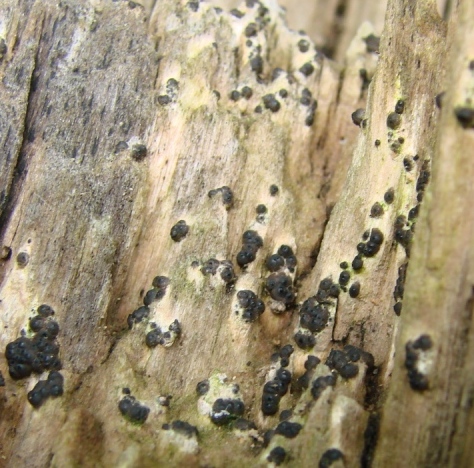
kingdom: Fungi
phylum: Ascomycota
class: Sordariomycetes
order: Xylariales
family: Xylariaceae
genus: Nemania
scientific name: Nemania maritima
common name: strand-kuldyne
